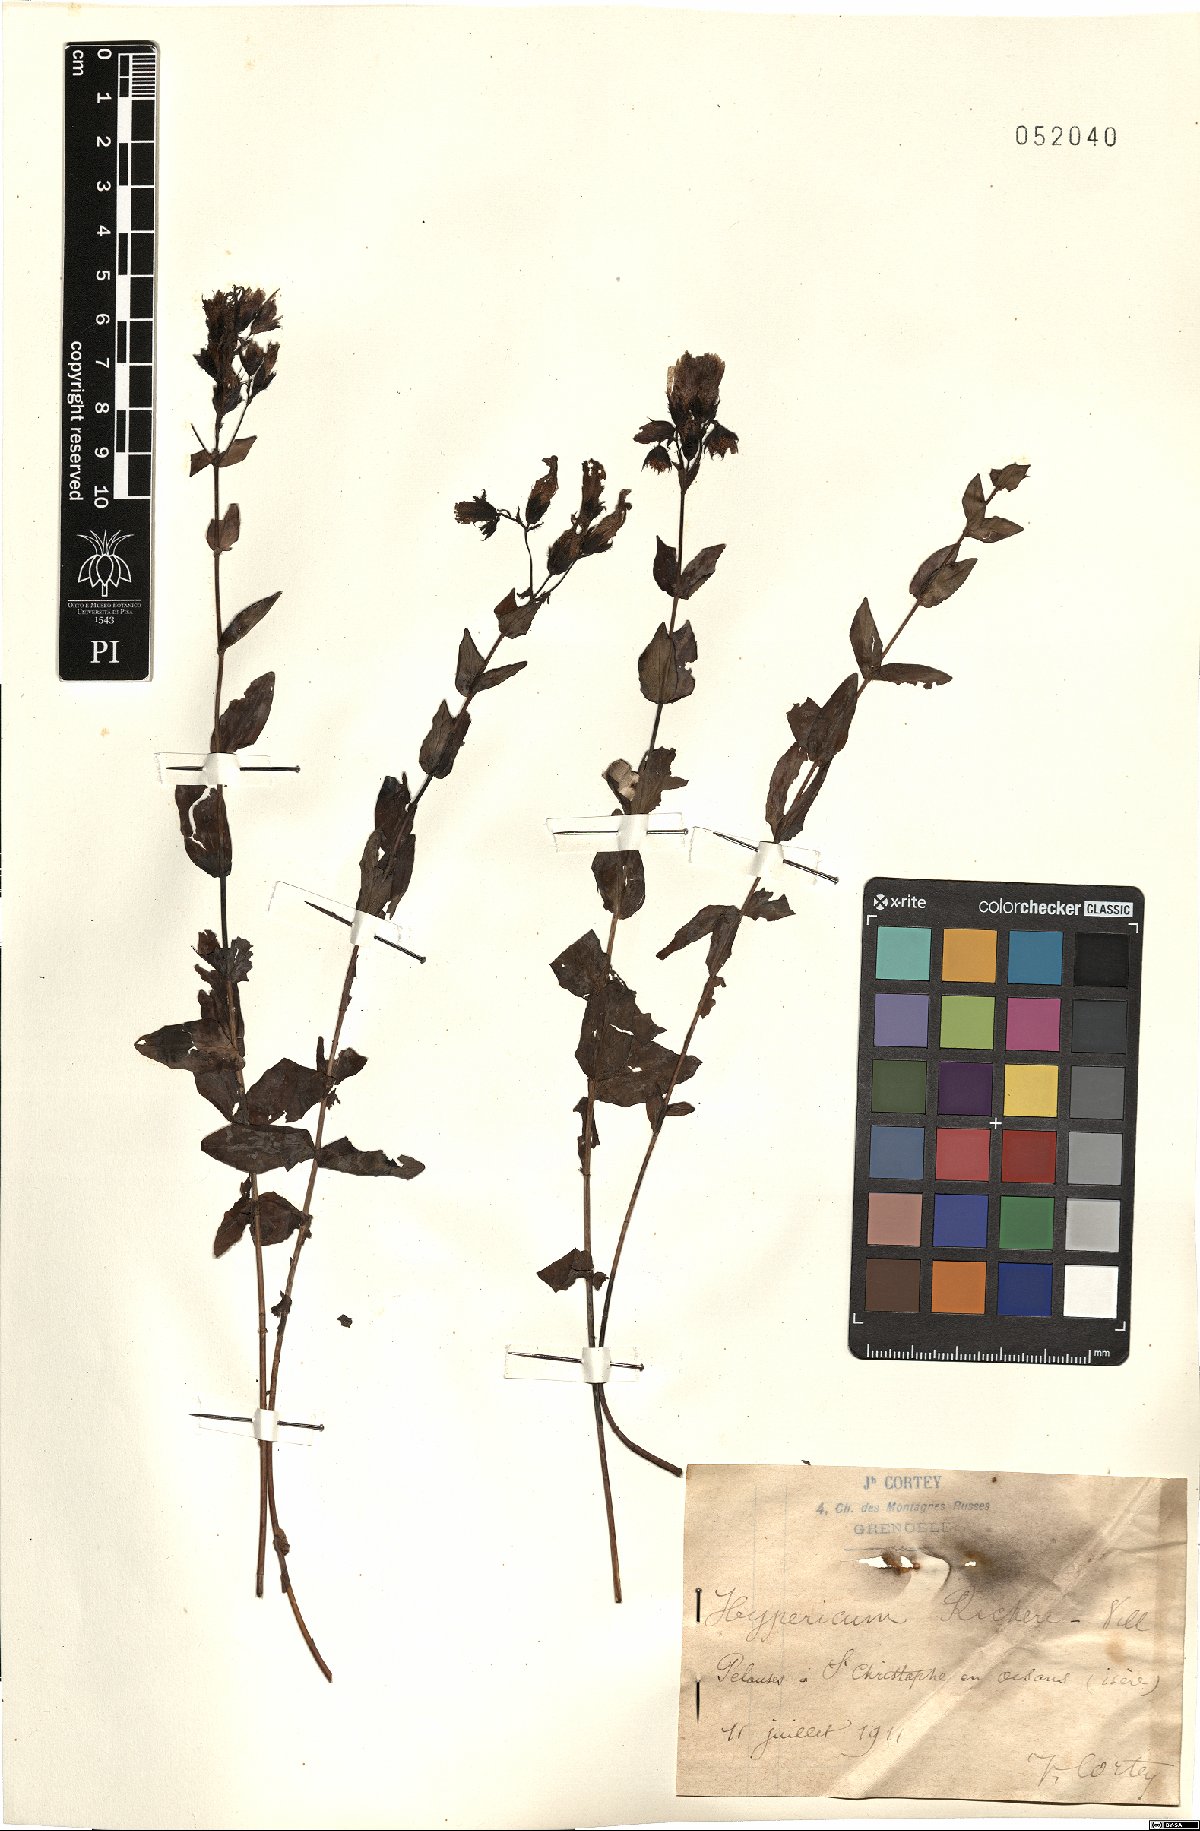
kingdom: Plantae
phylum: Tracheophyta
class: Magnoliopsida
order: Malpighiales
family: Hypericaceae
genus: Hypericum
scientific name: Hypericum richeri
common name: Alpine st john's-wort
